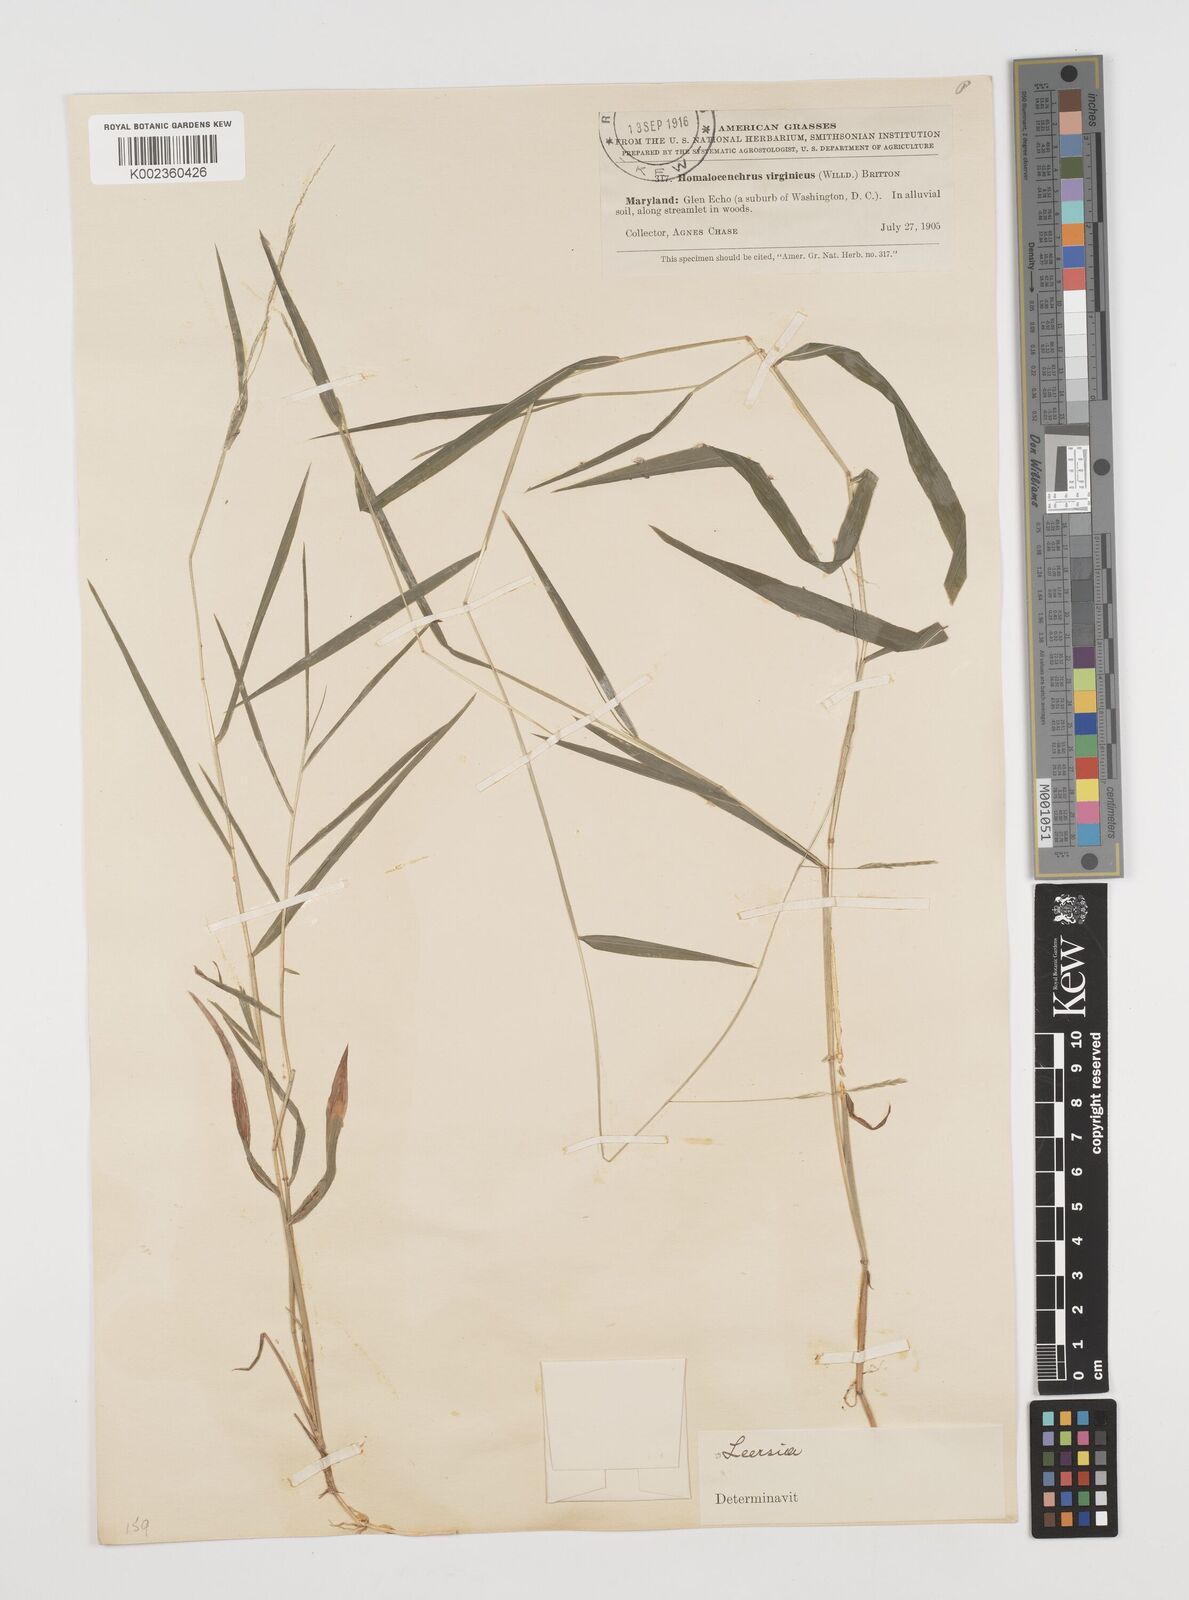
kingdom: Plantae
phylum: Tracheophyta
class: Liliopsida
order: Poales
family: Poaceae
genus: Leersia
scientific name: Leersia virginica
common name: White cutgrass
